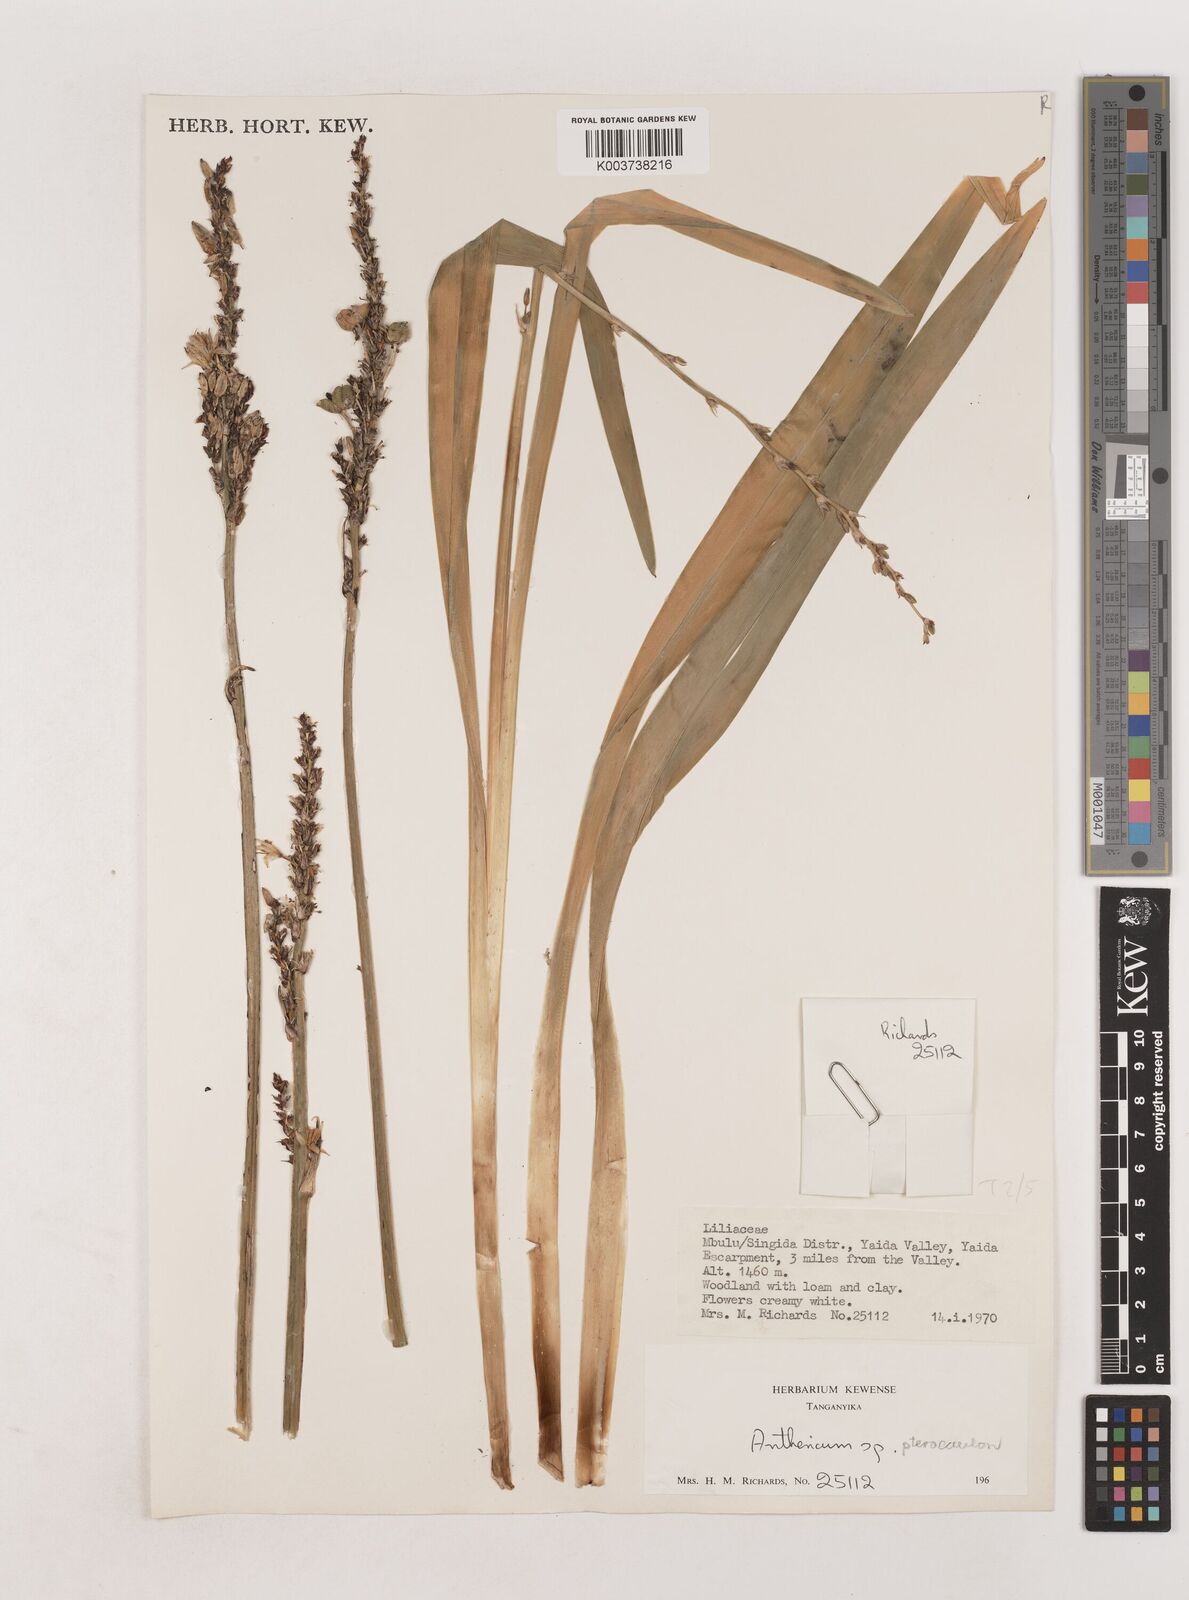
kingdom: Plantae
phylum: Tracheophyta
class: Liliopsida
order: Asparagales
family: Asparagaceae
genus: Chlorophytum
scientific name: Chlorophytum cameronii
